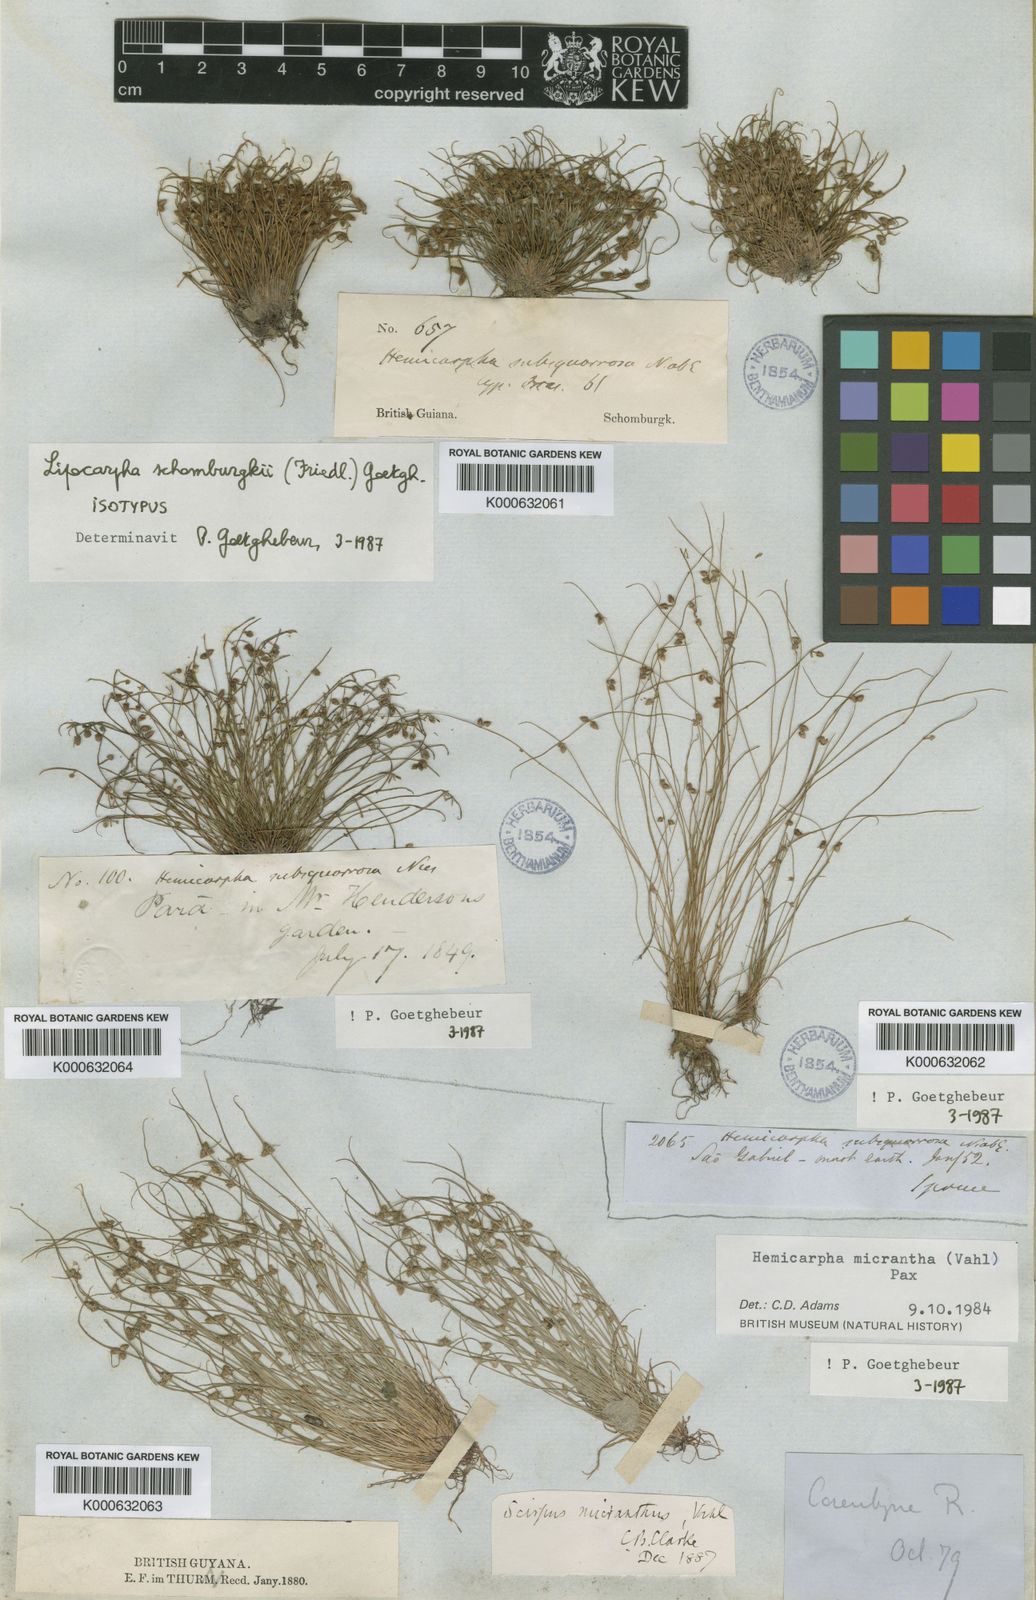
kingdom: Plantae
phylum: Tracheophyta
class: Liliopsida
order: Poales
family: Cyperaceae
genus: Cyperus
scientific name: Cyperus
